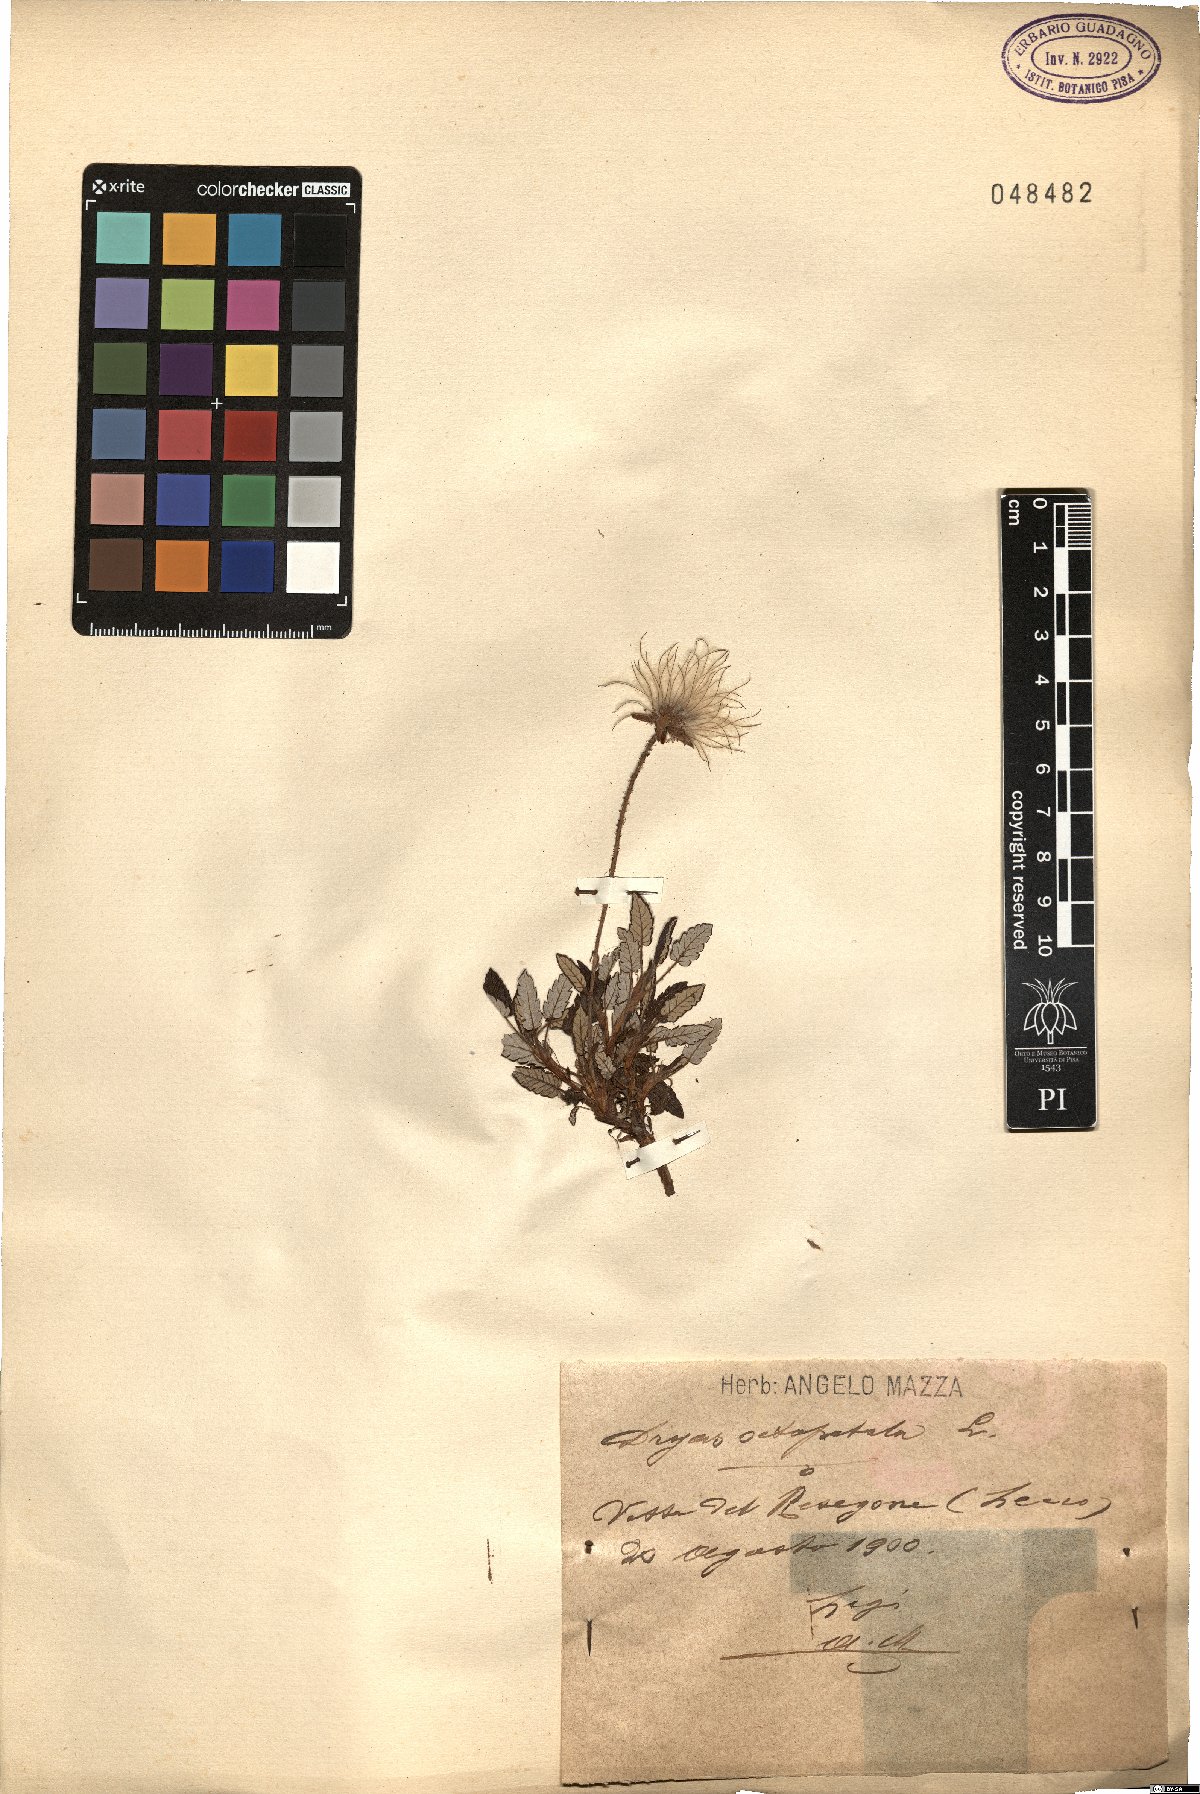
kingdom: Plantae
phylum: Tracheophyta
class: Magnoliopsida
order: Rosales
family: Rosaceae
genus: Dryas
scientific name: Dryas octopetala
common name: Eight-petal mountain-avens
